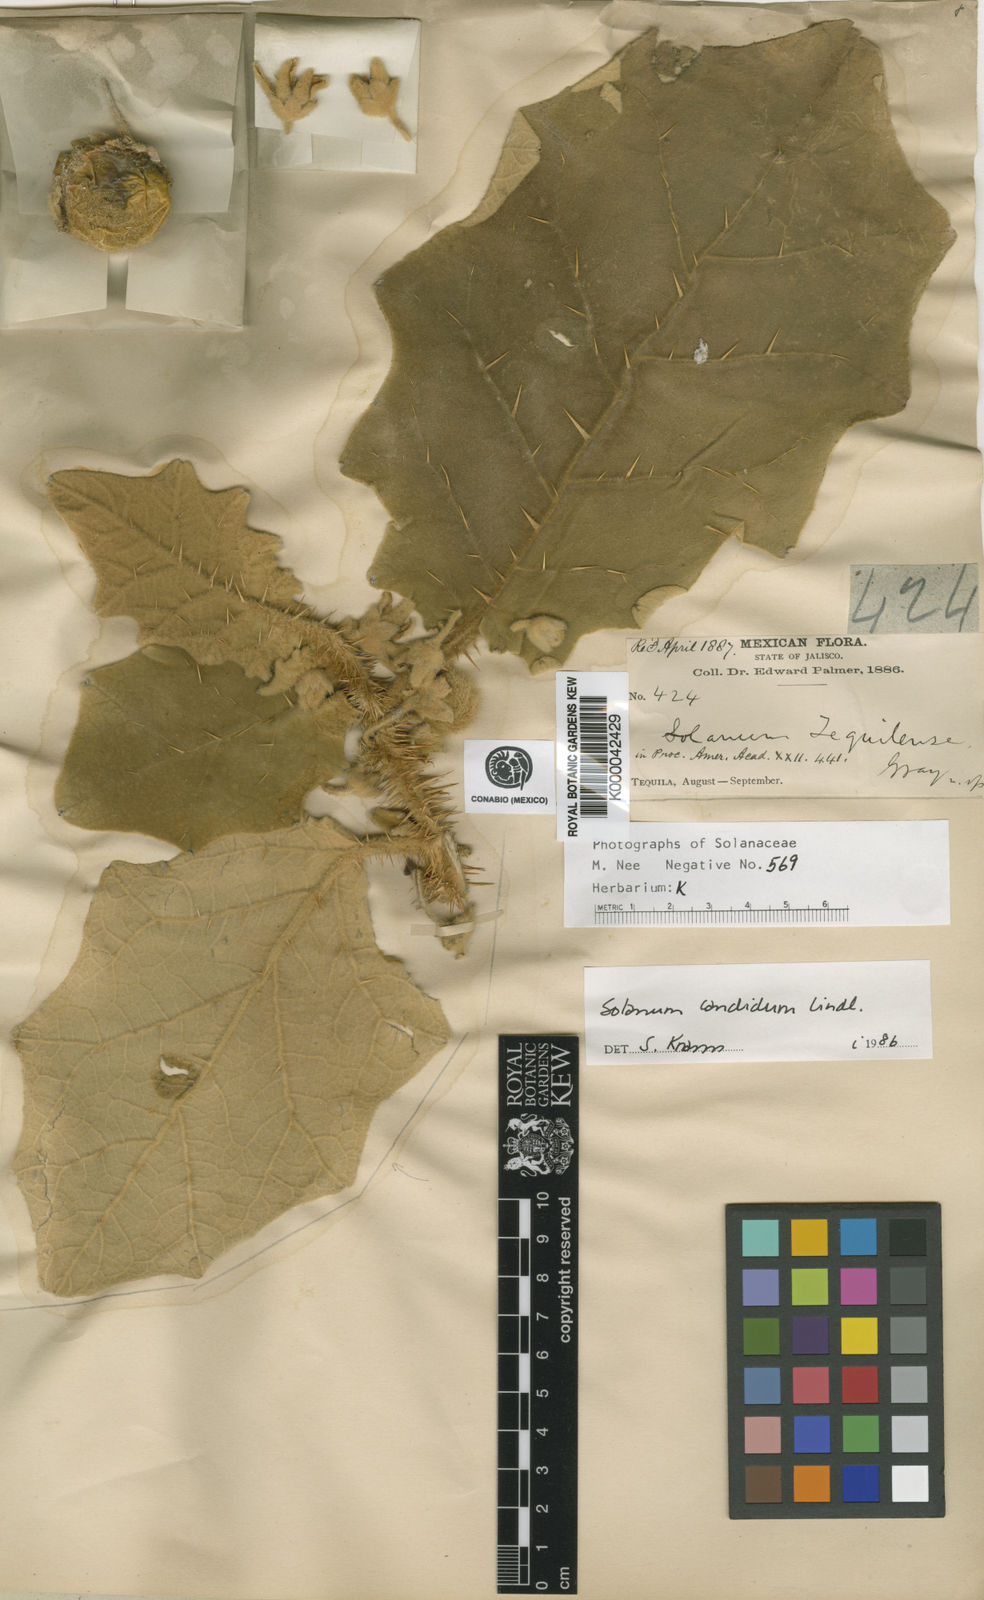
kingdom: Plantae
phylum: Tracheophyta
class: Magnoliopsida
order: Solanales
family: Solanaceae
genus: Solanum
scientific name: Solanum candidum
